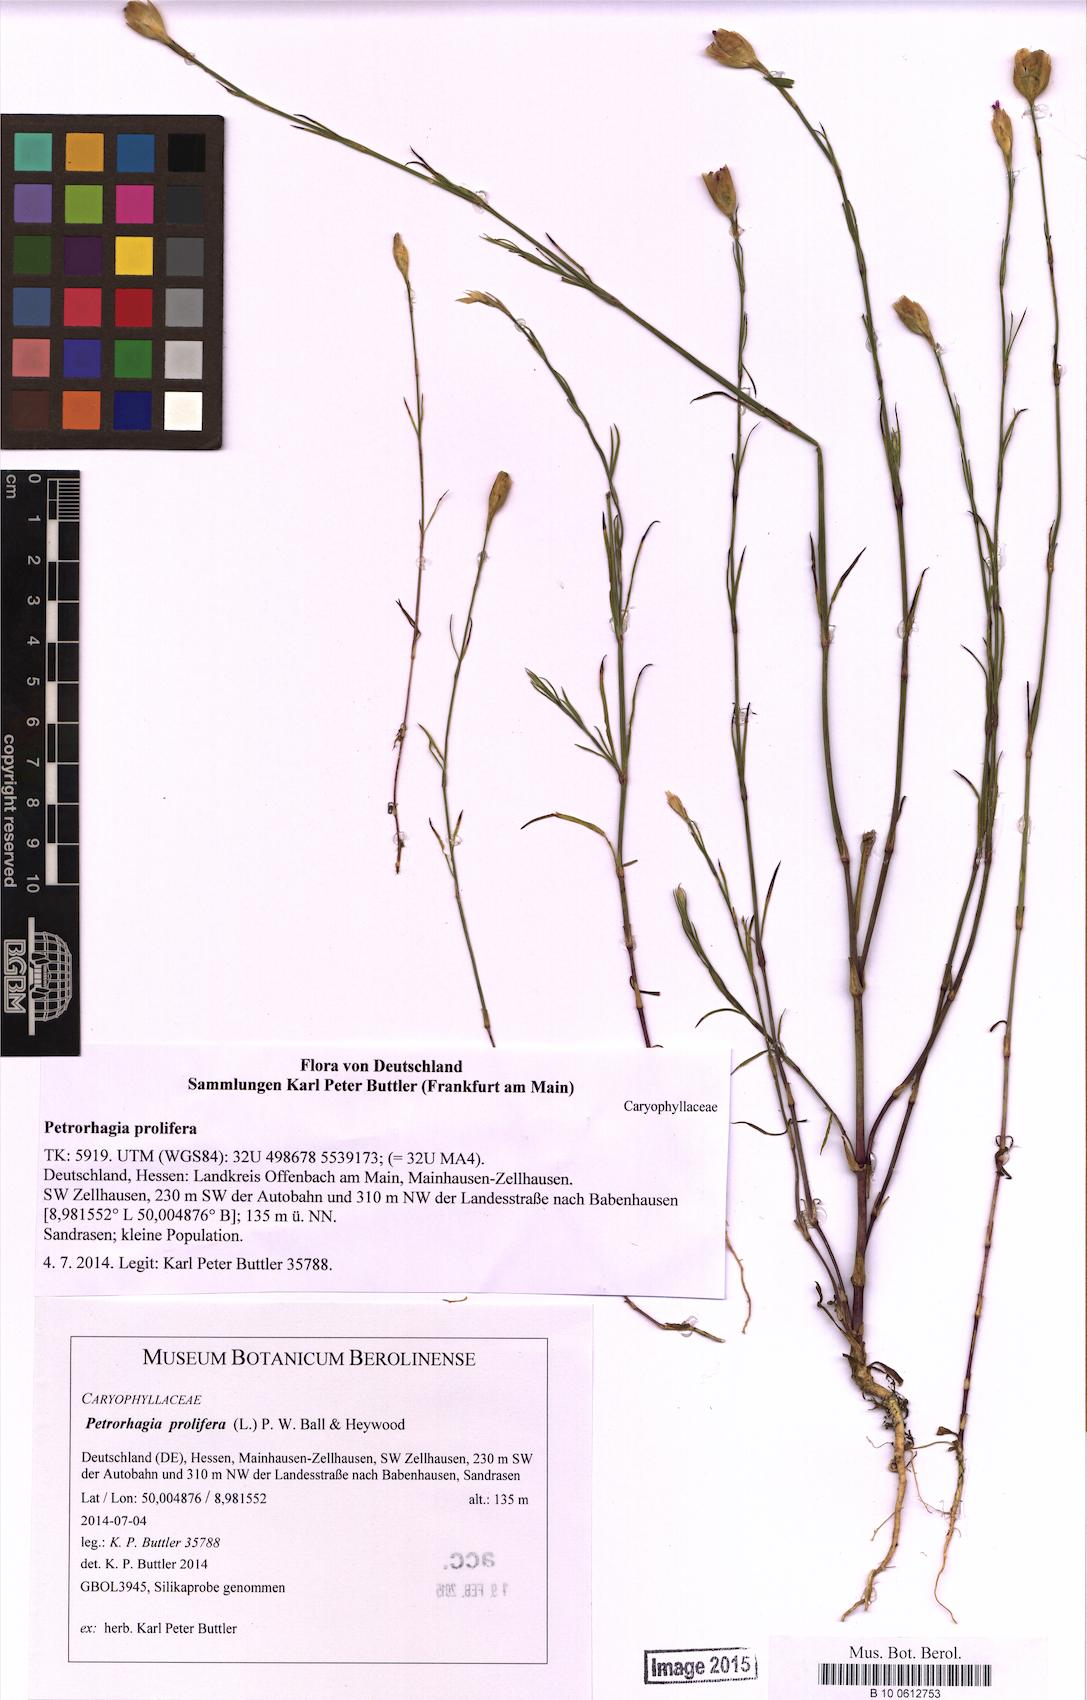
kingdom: Plantae
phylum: Tracheophyta
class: Magnoliopsida
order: Caryophyllales
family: Caryophyllaceae
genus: Petrorhagia
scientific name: Petrorhagia prolifera
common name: Proliferous pink
